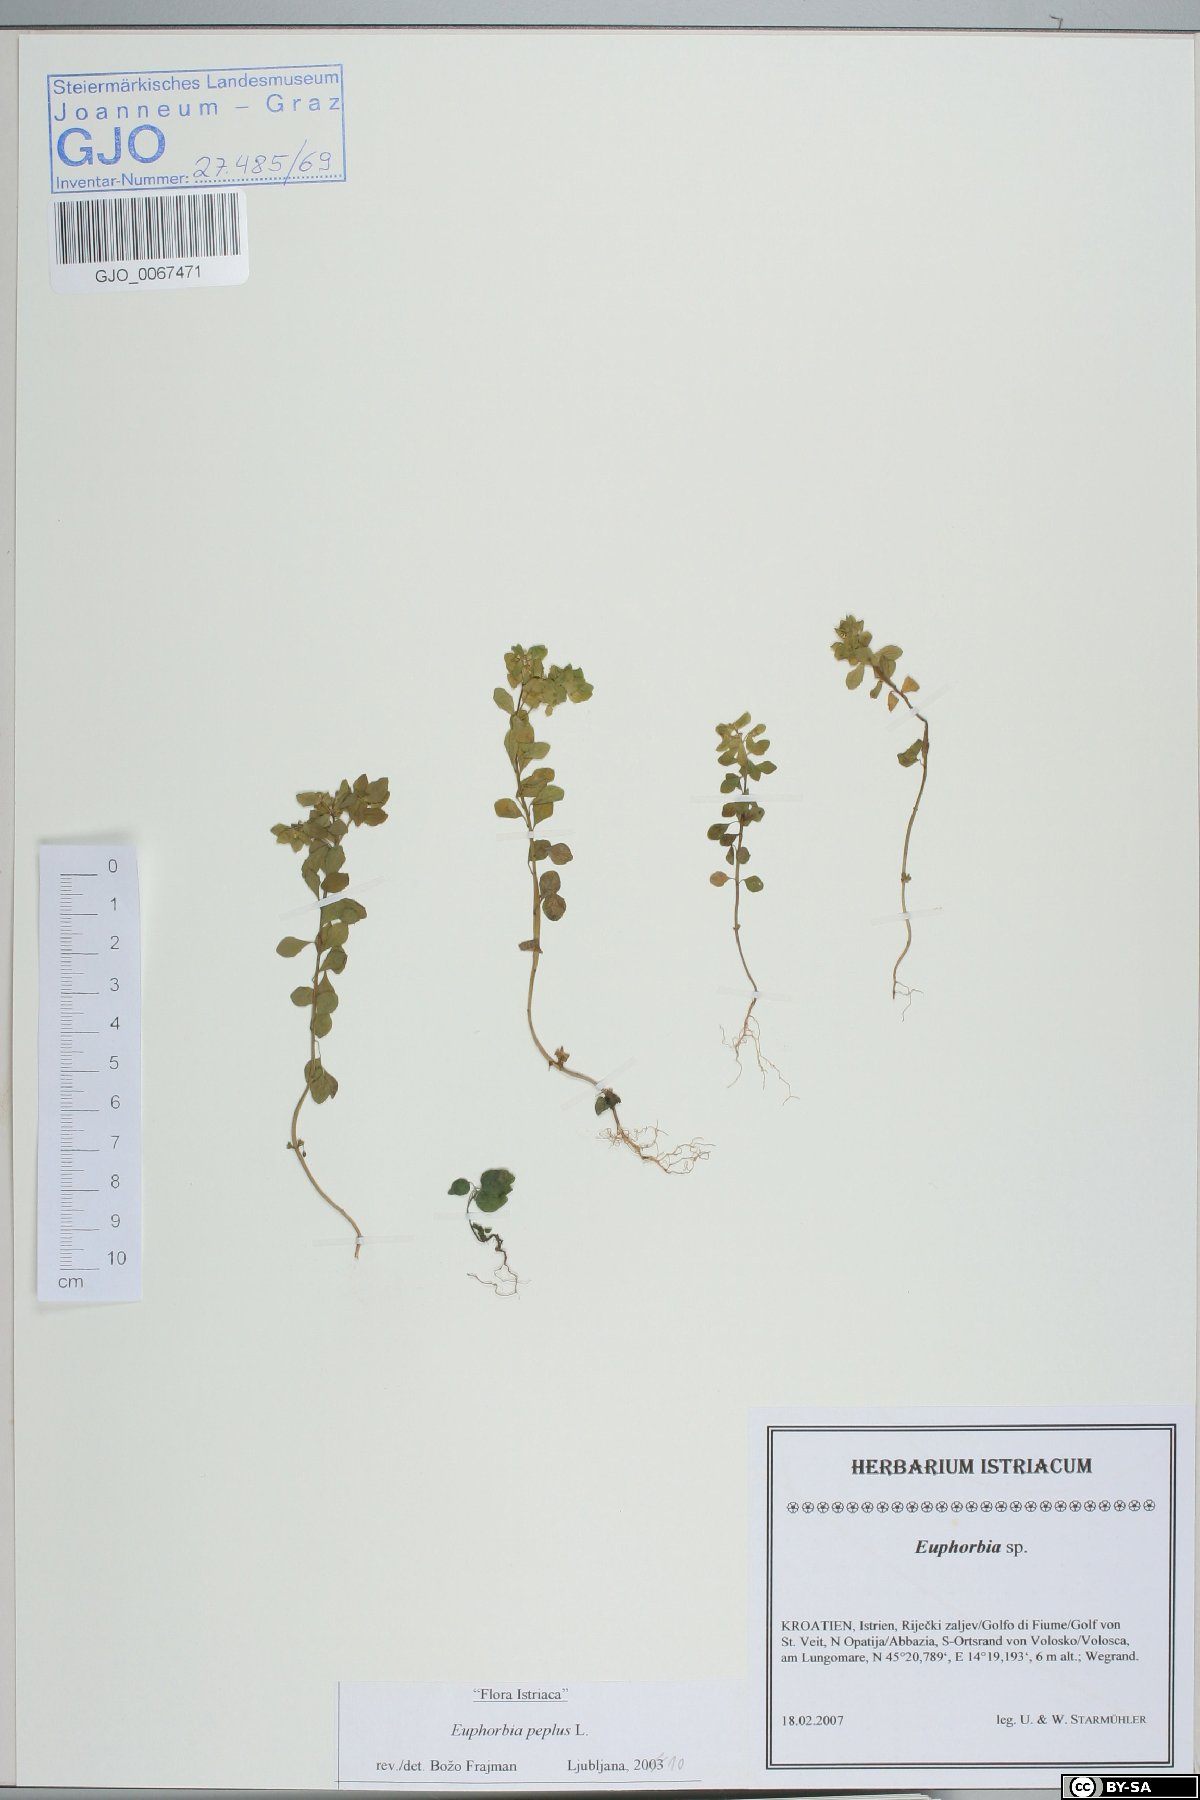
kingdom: Plantae
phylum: Tracheophyta
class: Magnoliopsida
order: Malpighiales
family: Euphorbiaceae
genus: Euphorbia
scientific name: Euphorbia peplus
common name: Petty spurge
